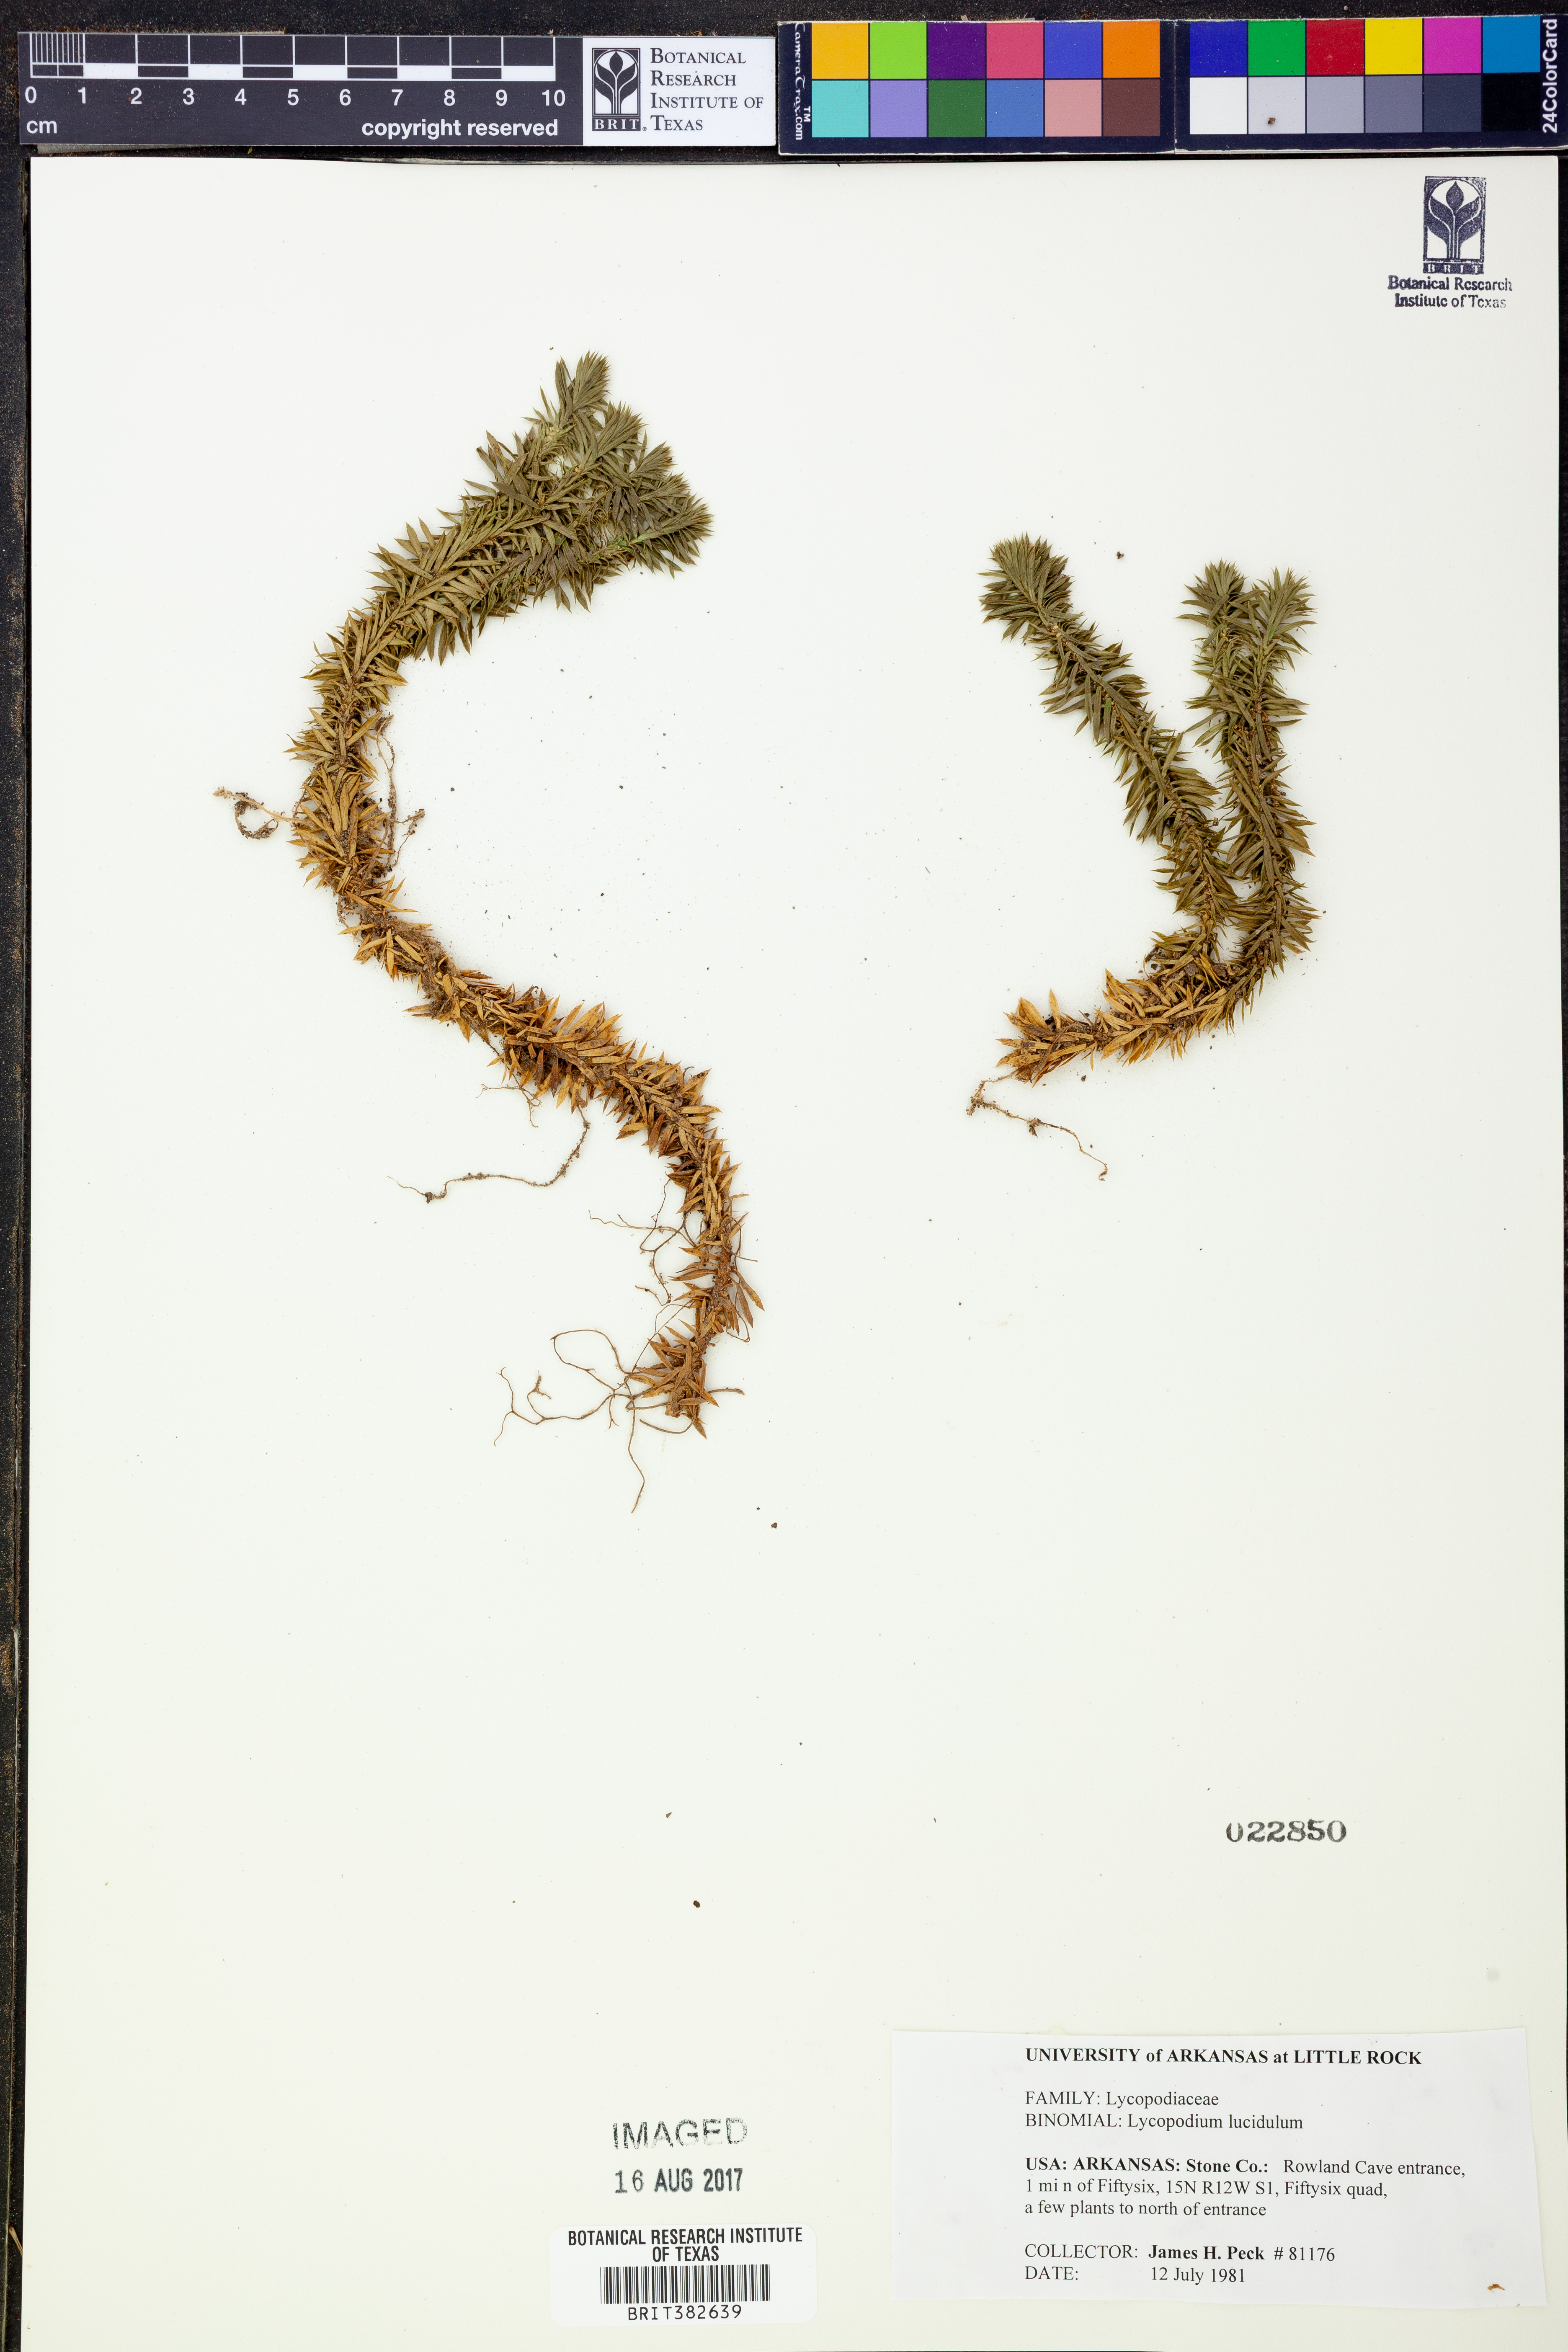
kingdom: Plantae
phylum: Tracheophyta
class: Lycopodiopsida
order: Lycopodiales
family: Lycopodiaceae
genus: Huperzia
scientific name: Huperzia lucidula
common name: Shining clubmoss
